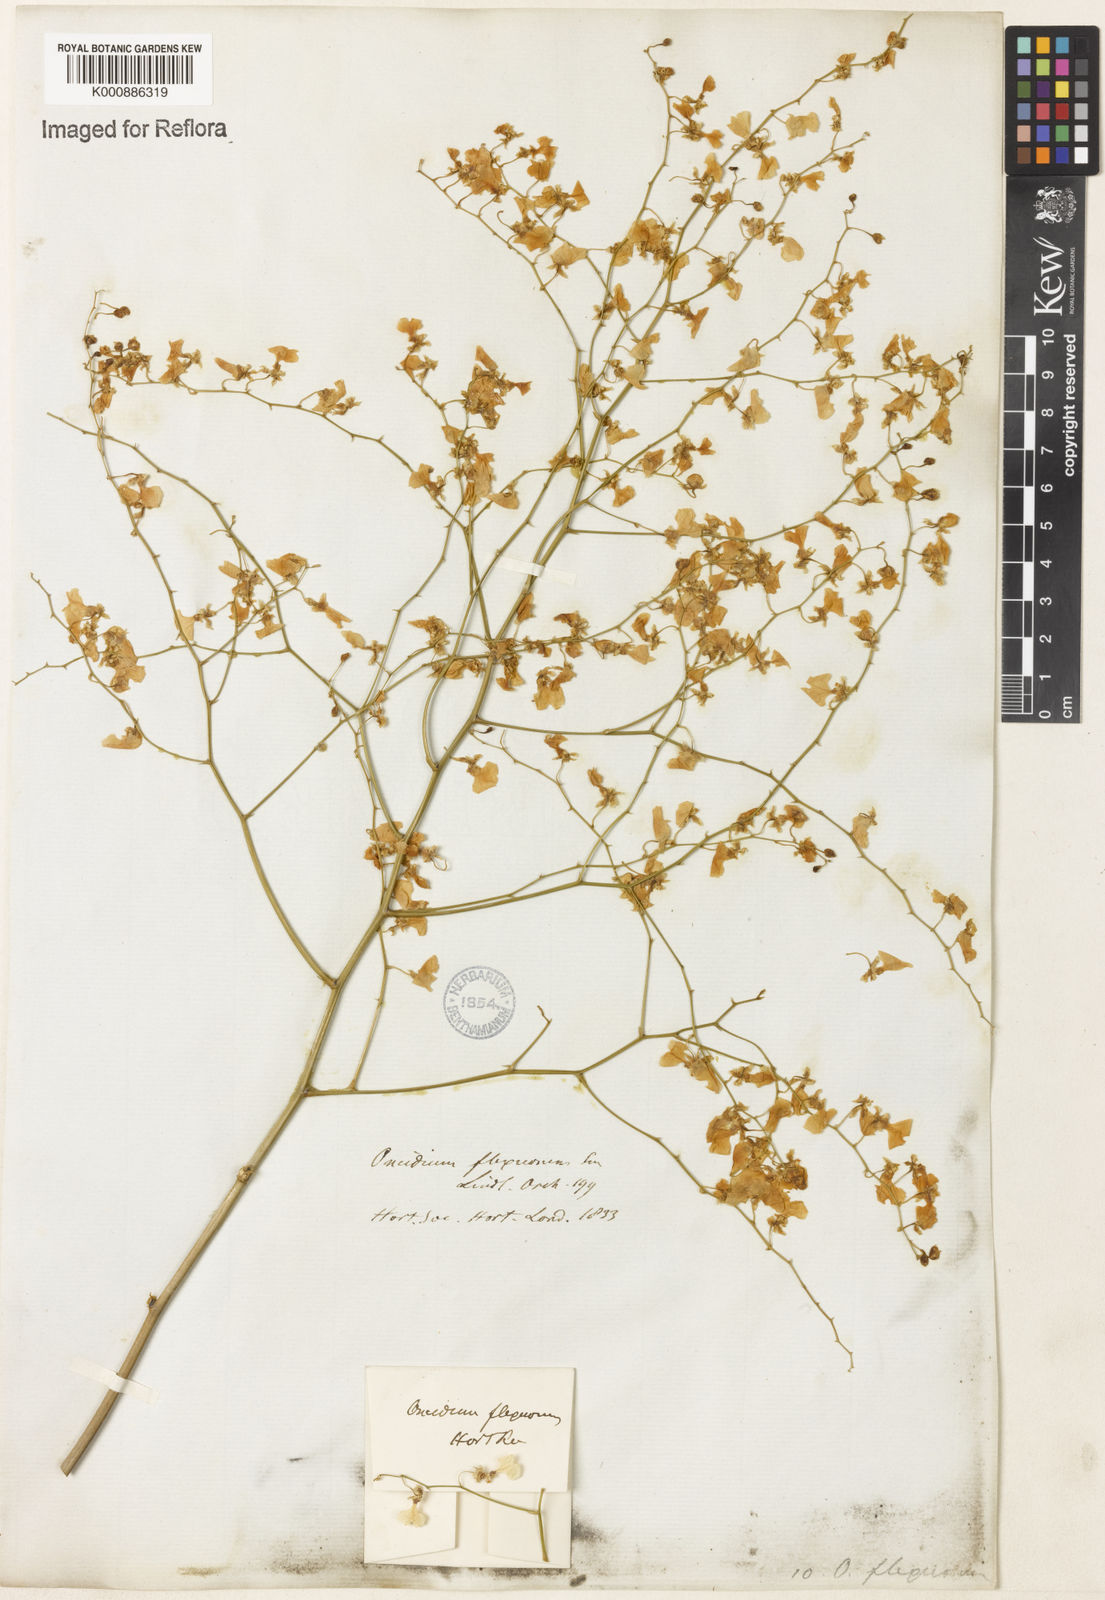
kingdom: Plantae
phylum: Tracheophyta
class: Liliopsida
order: Asparagales
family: Orchidaceae
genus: Gomesa
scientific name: Gomesa flexuosa
